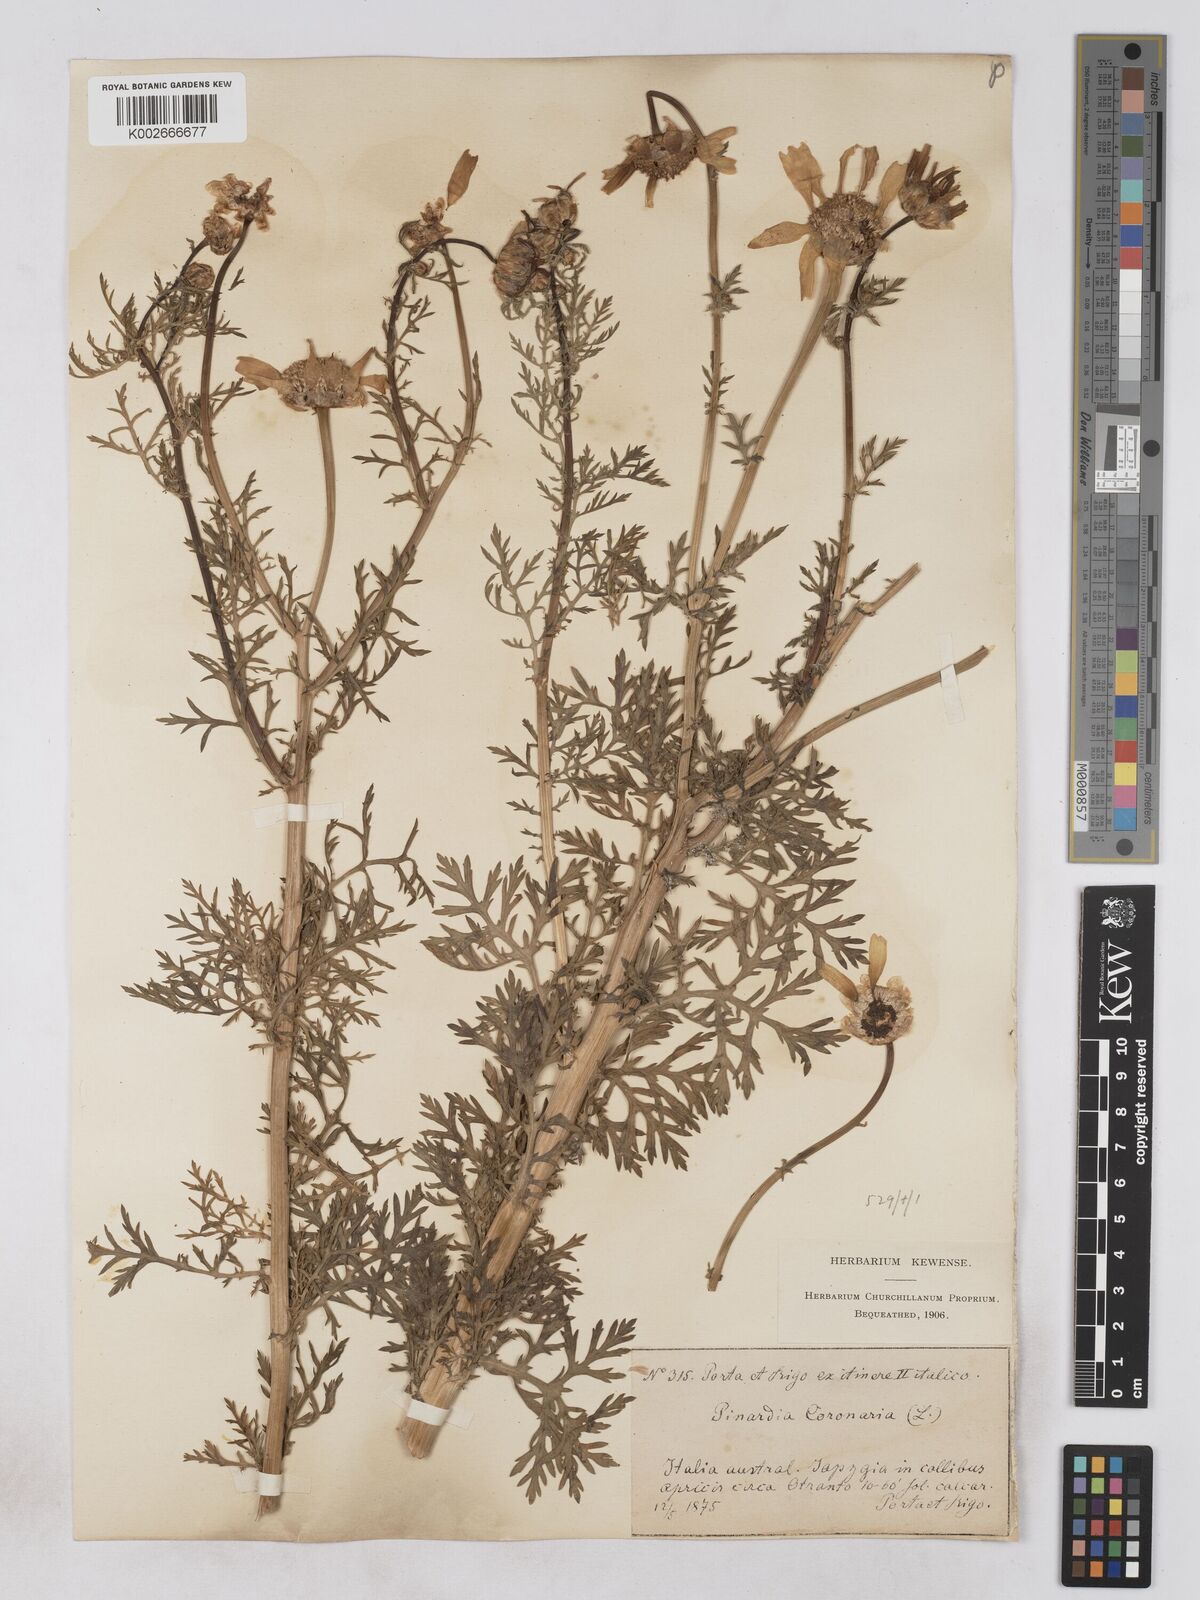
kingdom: Plantae
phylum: Tracheophyta
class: Magnoliopsida
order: Asterales
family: Asteraceae
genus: Glebionis
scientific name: Glebionis coronaria
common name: Crowndaisy
